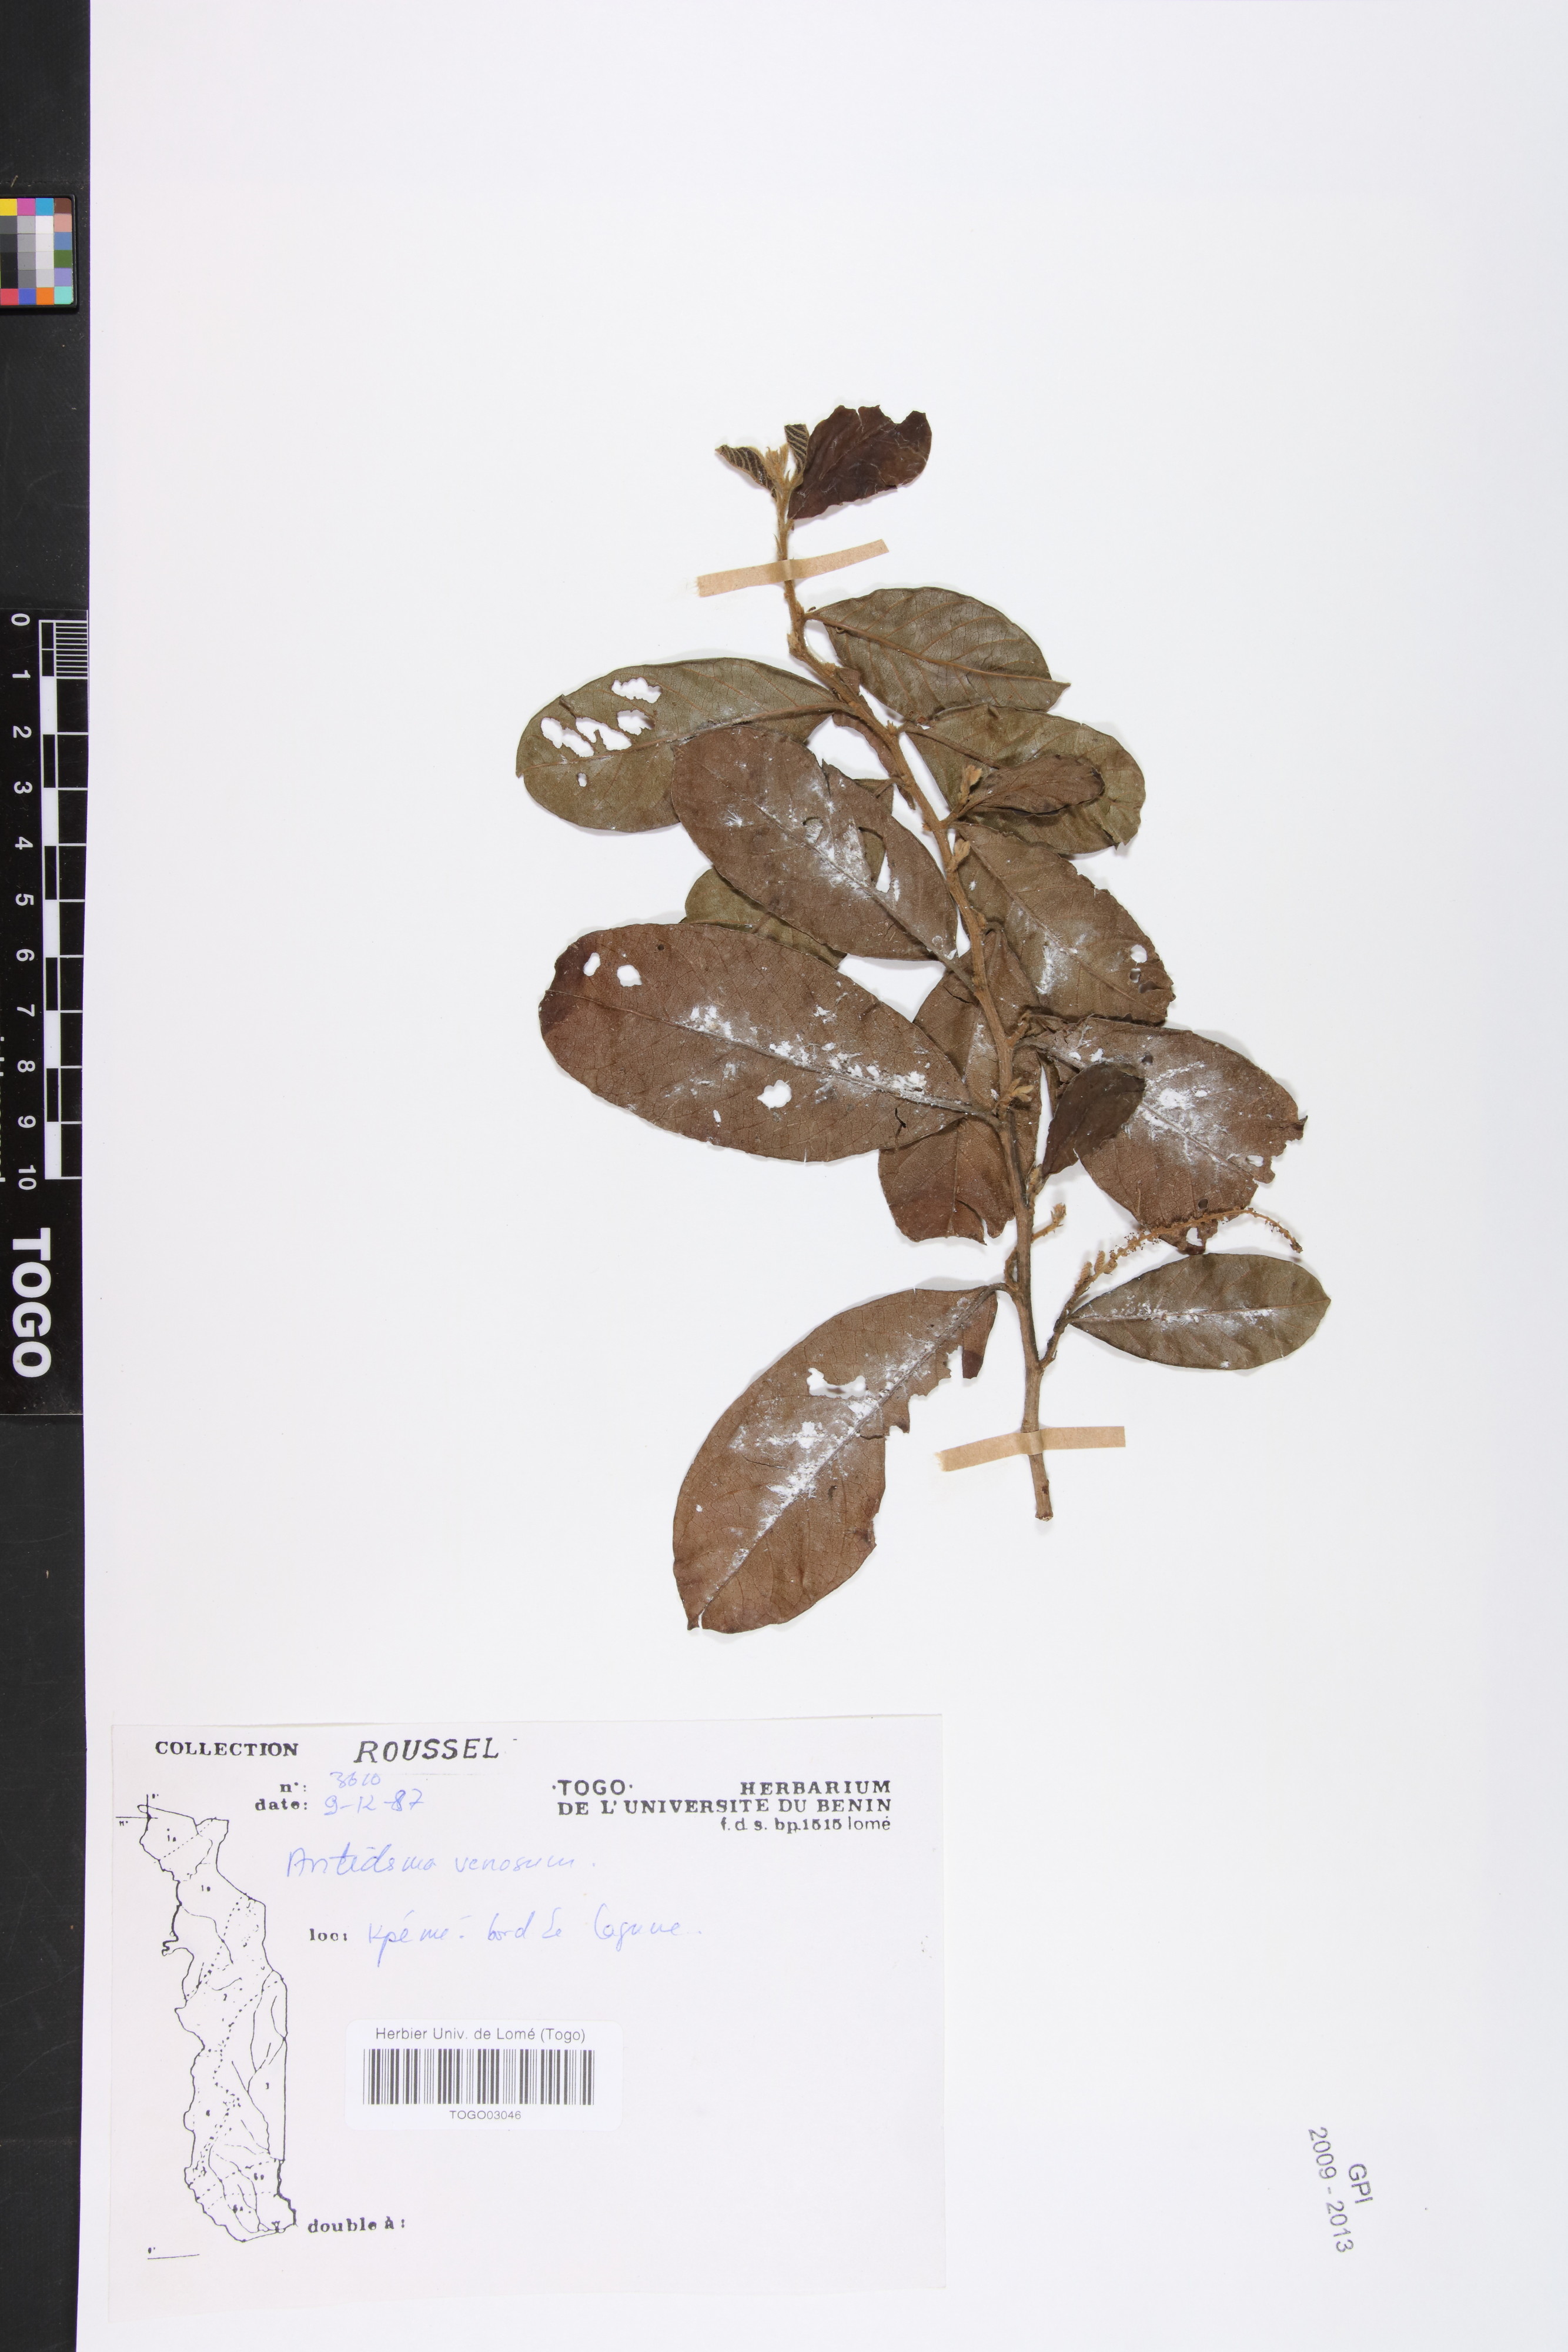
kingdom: Plantae
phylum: Tracheophyta
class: Magnoliopsida
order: Malpighiales
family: Phyllanthaceae
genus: Antidesma
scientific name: Antidesma venosum
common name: Tassel-berry
